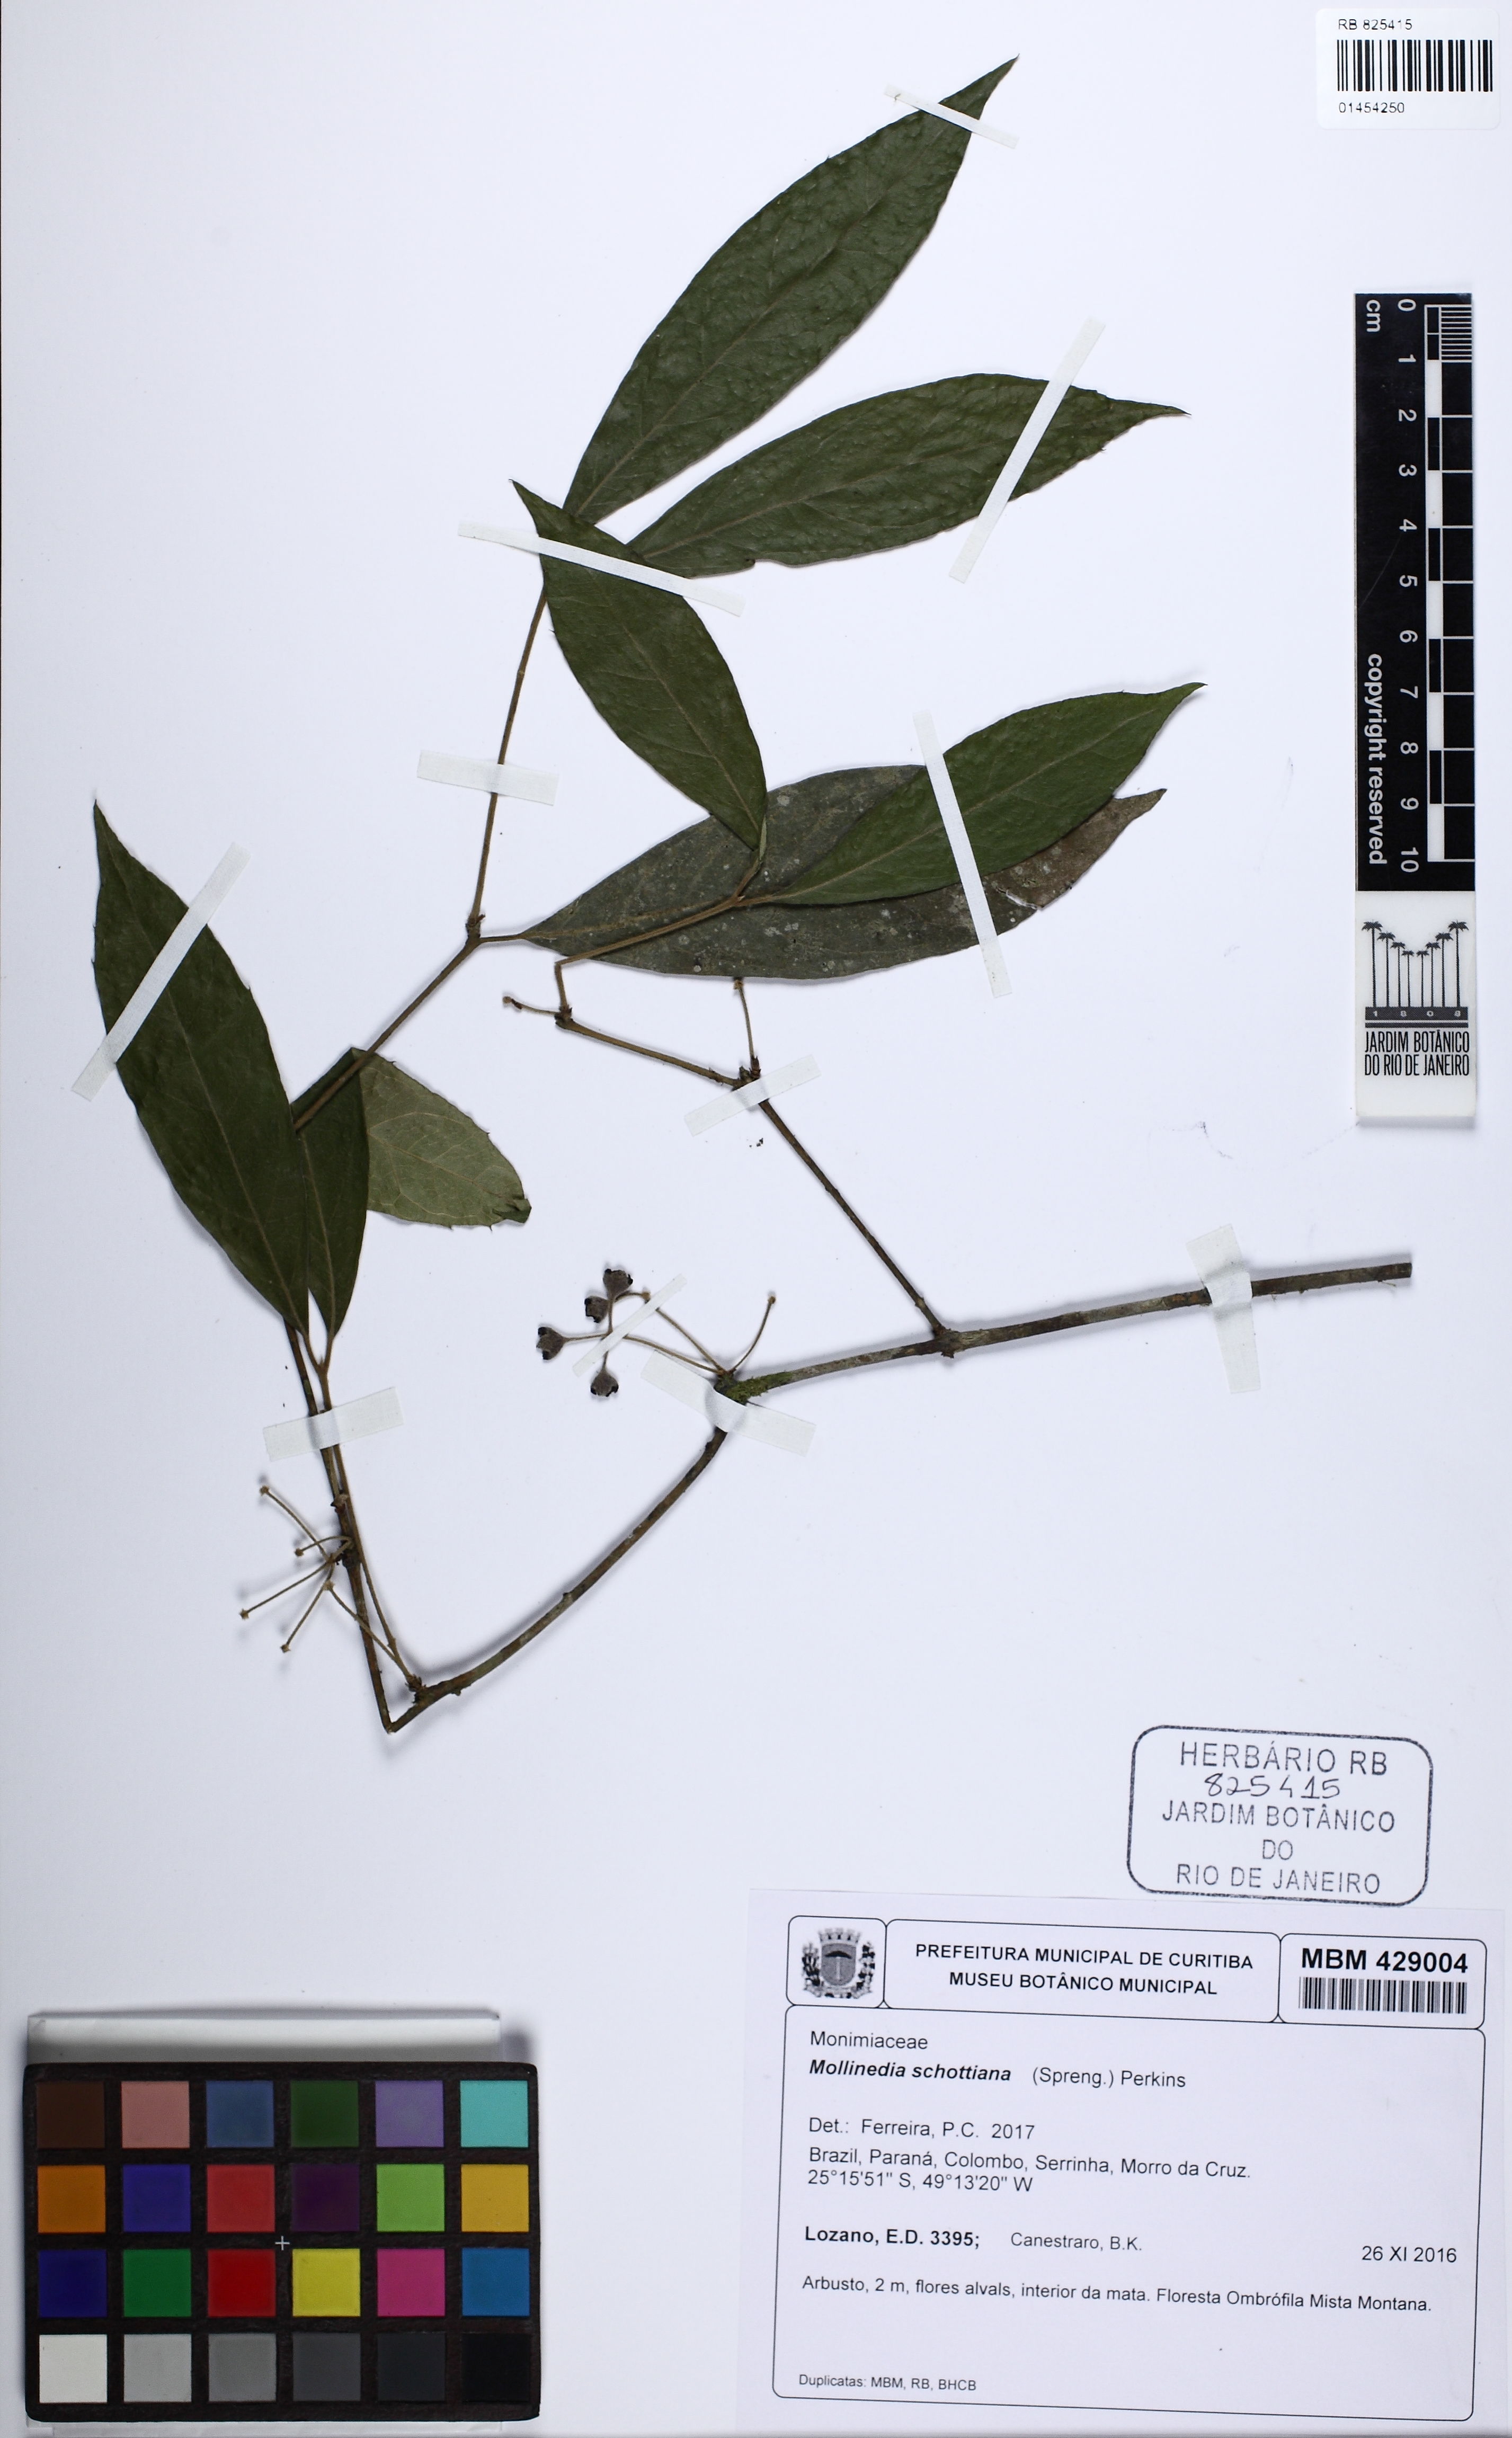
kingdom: Plantae
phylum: Tracheophyta
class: Magnoliopsida
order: Laurales
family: Monimiaceae
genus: Mollinedia
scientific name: Mollinedia umbellata
